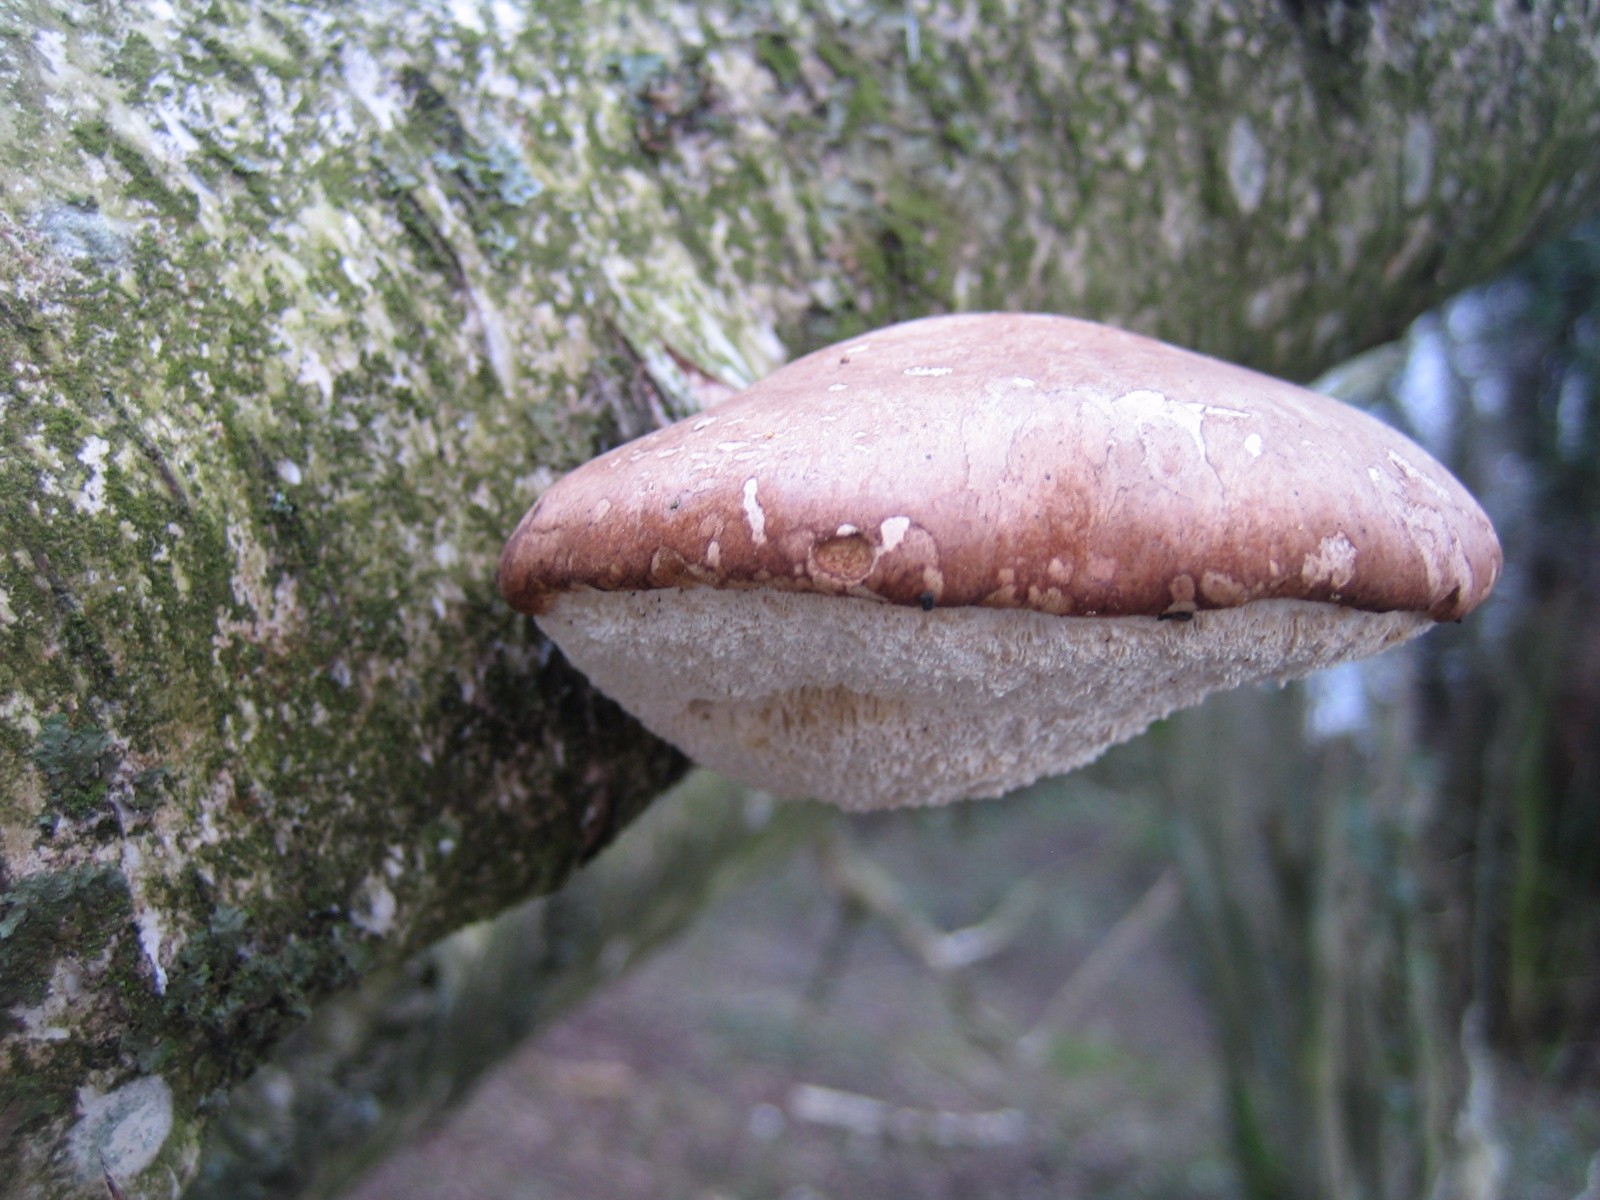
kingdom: Fungi
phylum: Basidiomycota
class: Agaricomycetes
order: Polyporales
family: Fomitopsidaceae
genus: Fomitopsis
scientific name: Fomitopsis betulina
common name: birkeporesvamp
